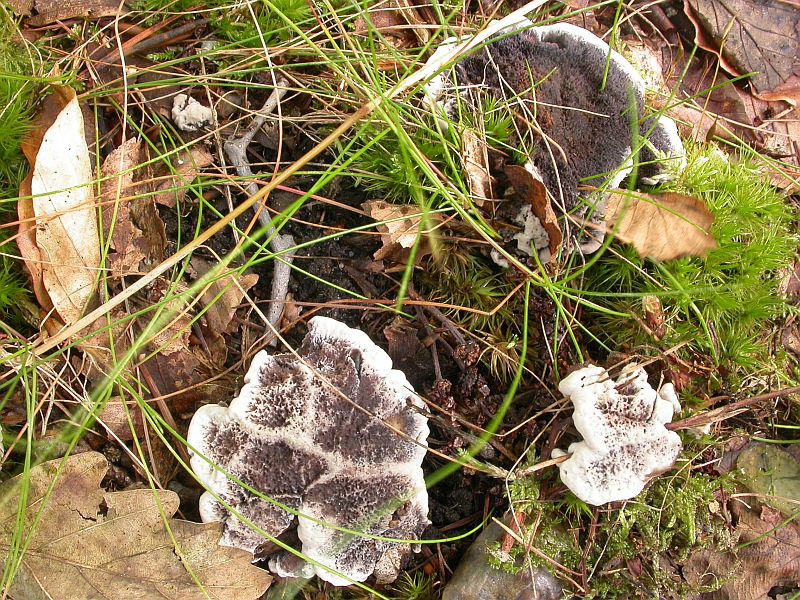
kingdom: Fungi
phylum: Basidiomycota
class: Agaricomycetes
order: Thelephorales
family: Thelephoraceae
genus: Phellodon
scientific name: Phellodon confluens
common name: pjaltet duftpigsvamp
